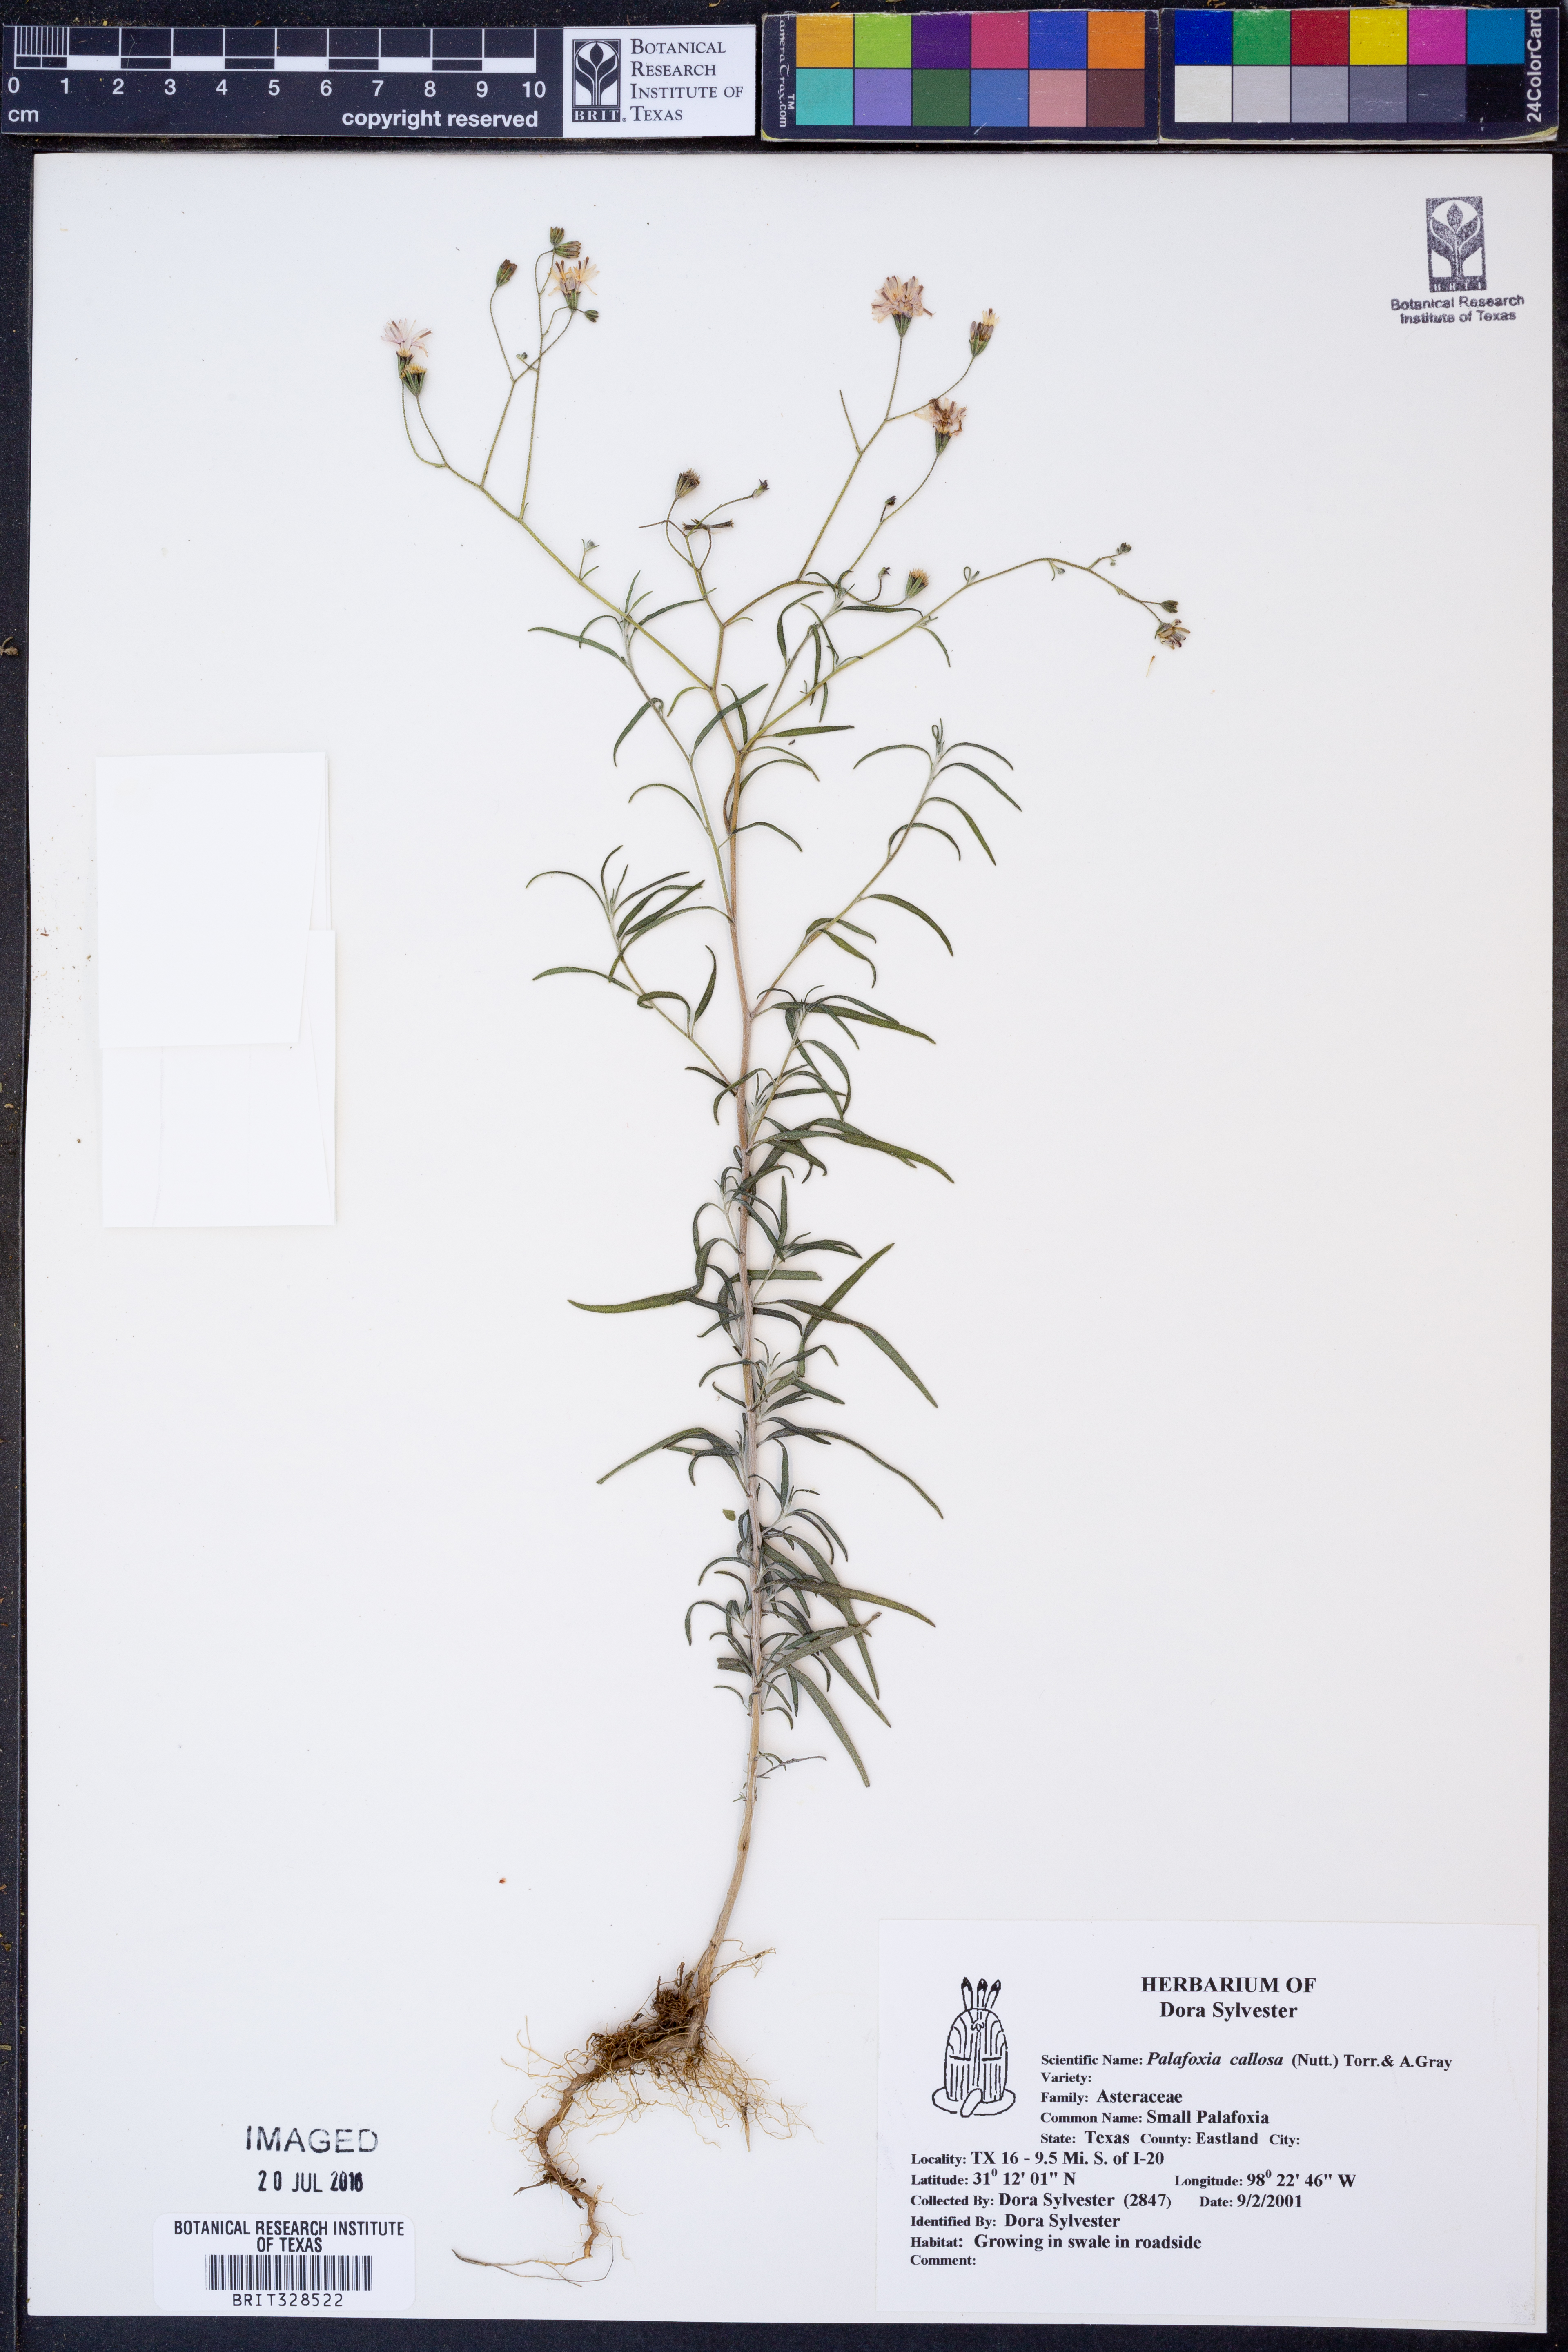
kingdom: Plantae
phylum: Tracheophyta
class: Magnoliopsida
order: Asterales
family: Asteraceae
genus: Palafoxia
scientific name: Palafoxia callosa
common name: Small palafox
